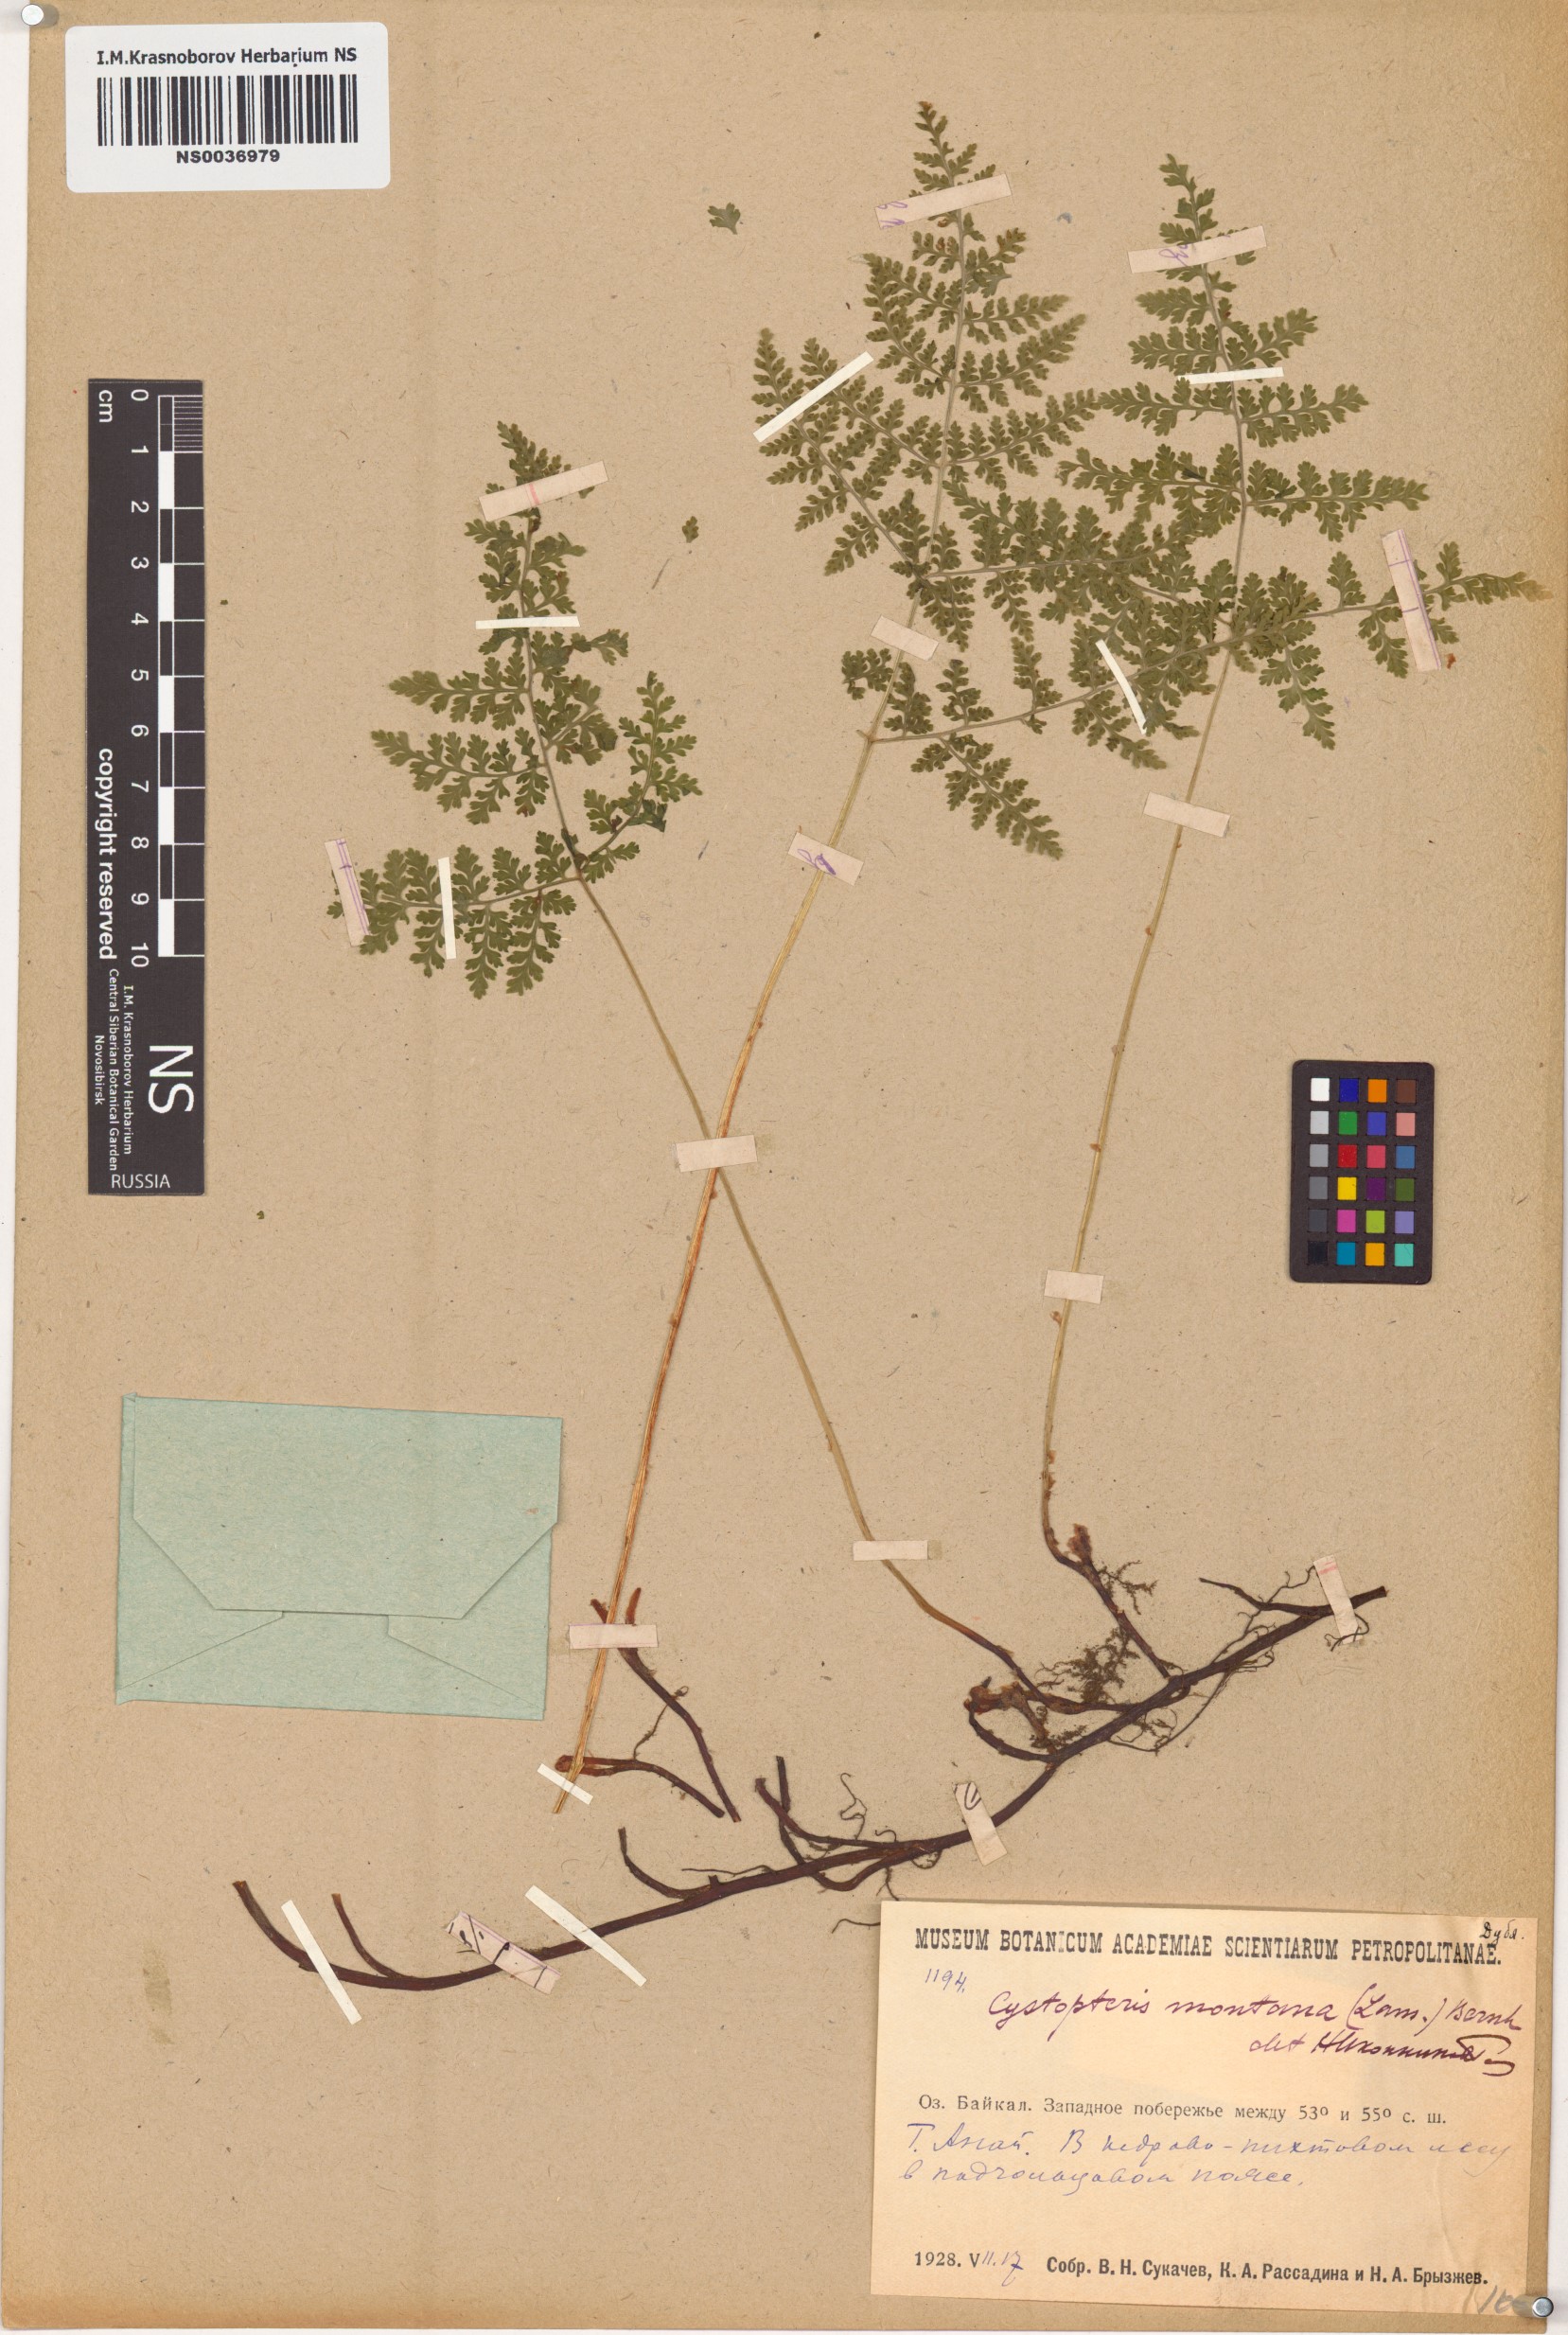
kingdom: Plantae
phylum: Tracheophyta
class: Polypodiopsida
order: Polypodiales
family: Cystopteridaceae
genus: Cystopteris
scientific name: Cystopteris montana
